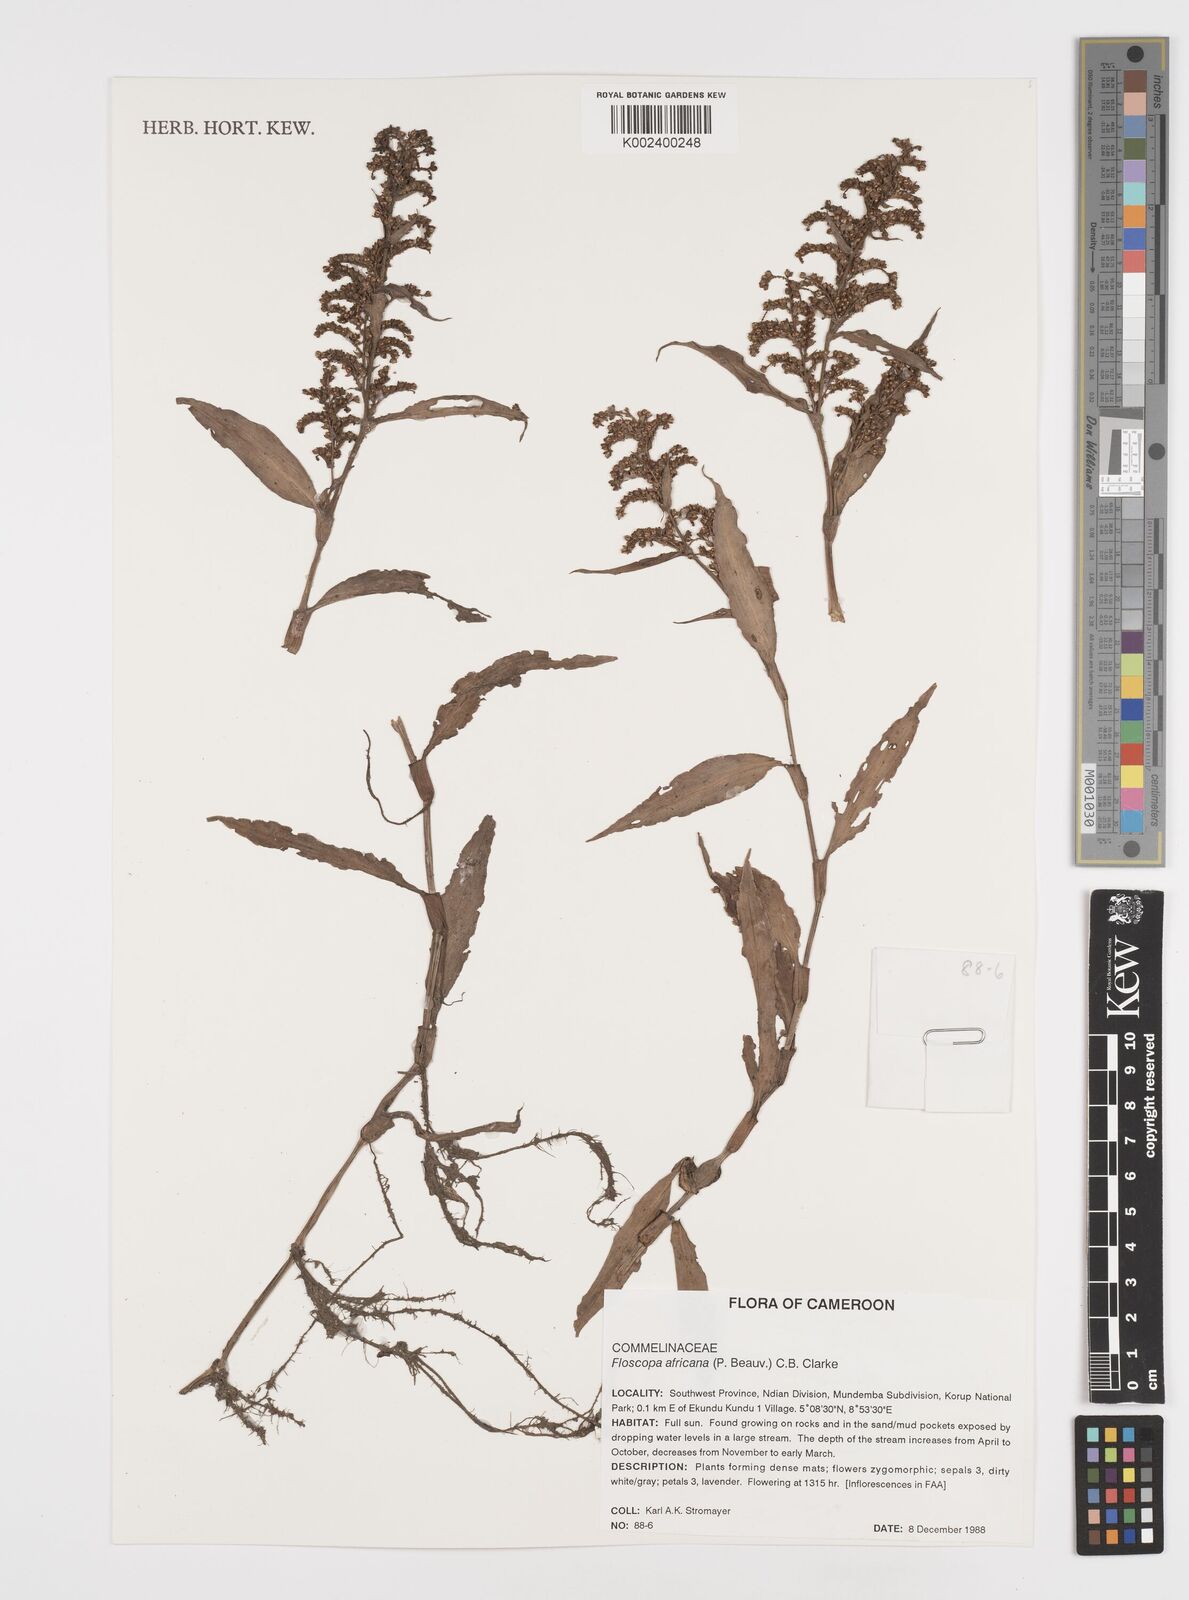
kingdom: Plantae
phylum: Tracheophyta
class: Liliopsida
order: Commelinales
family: Commelinaceae
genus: Floscopa
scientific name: Floscopa africana
